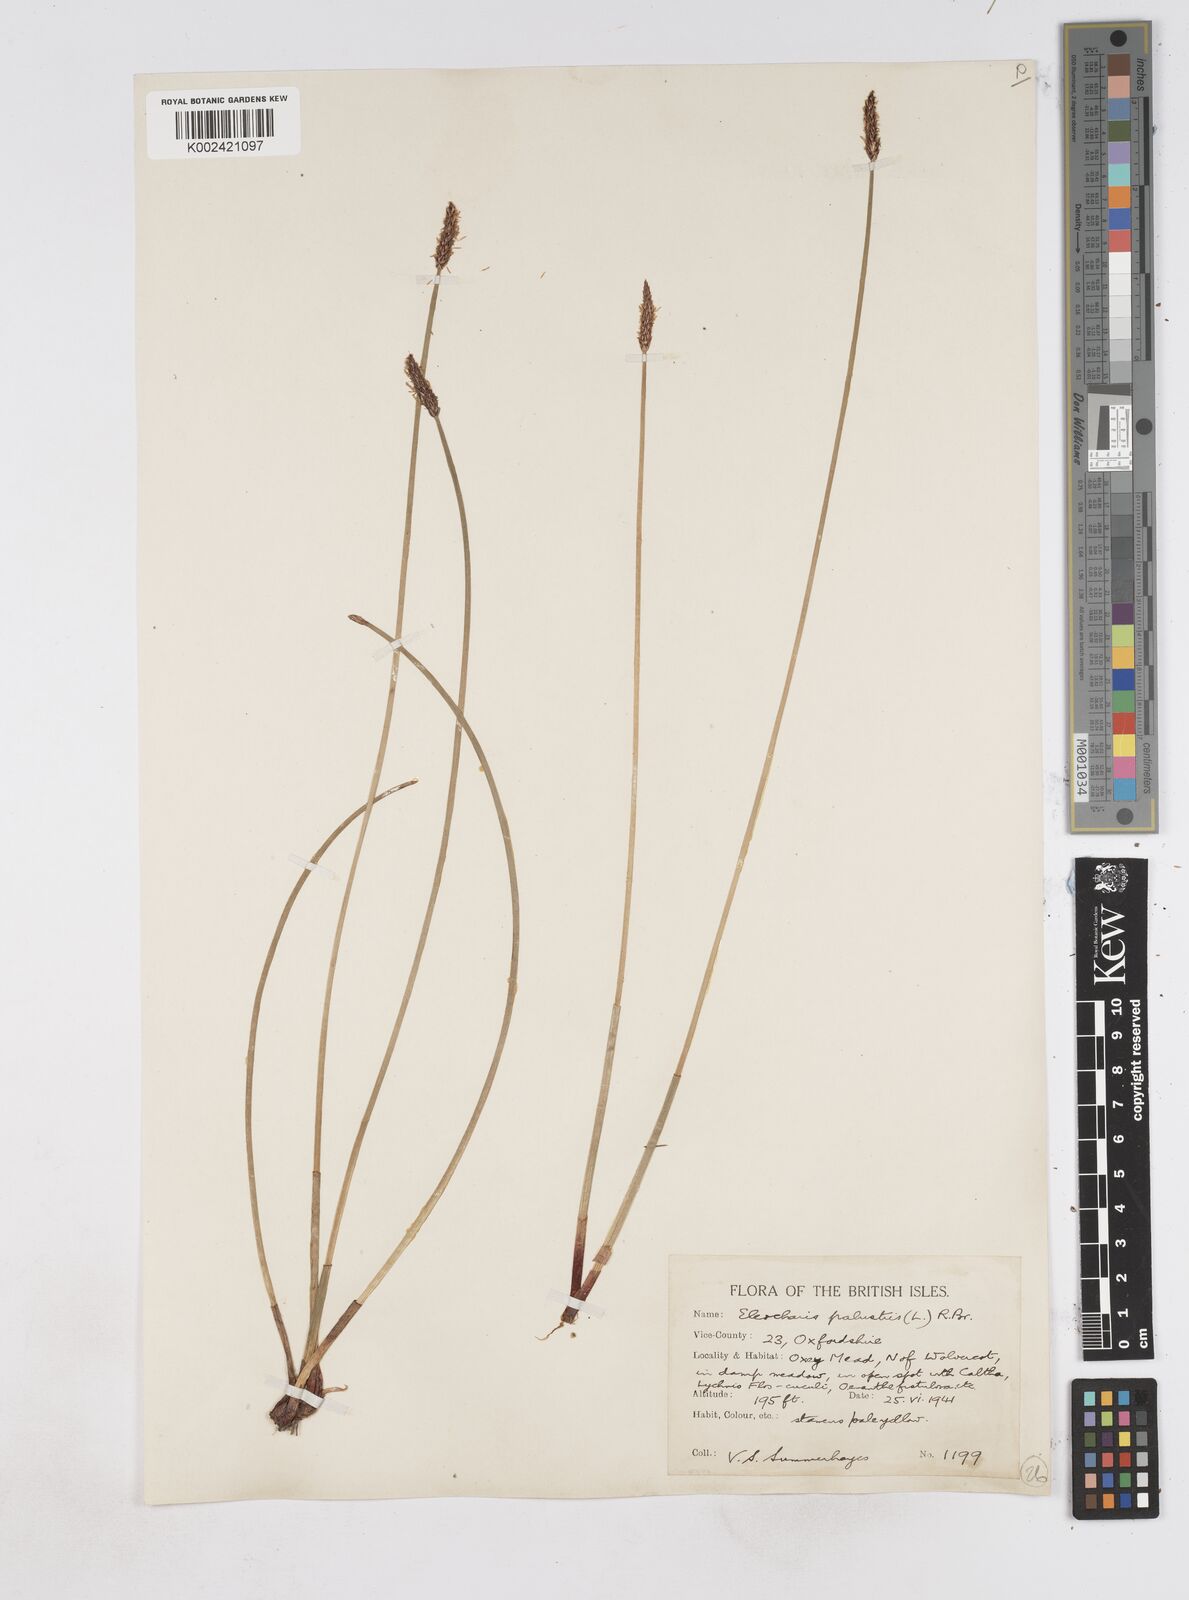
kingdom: Plantae
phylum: Tracheophyta
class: Liliopsida
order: Poales
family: Cyperaceae
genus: Eleocharis
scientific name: Eleocharis palustris
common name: Common spike-rush
